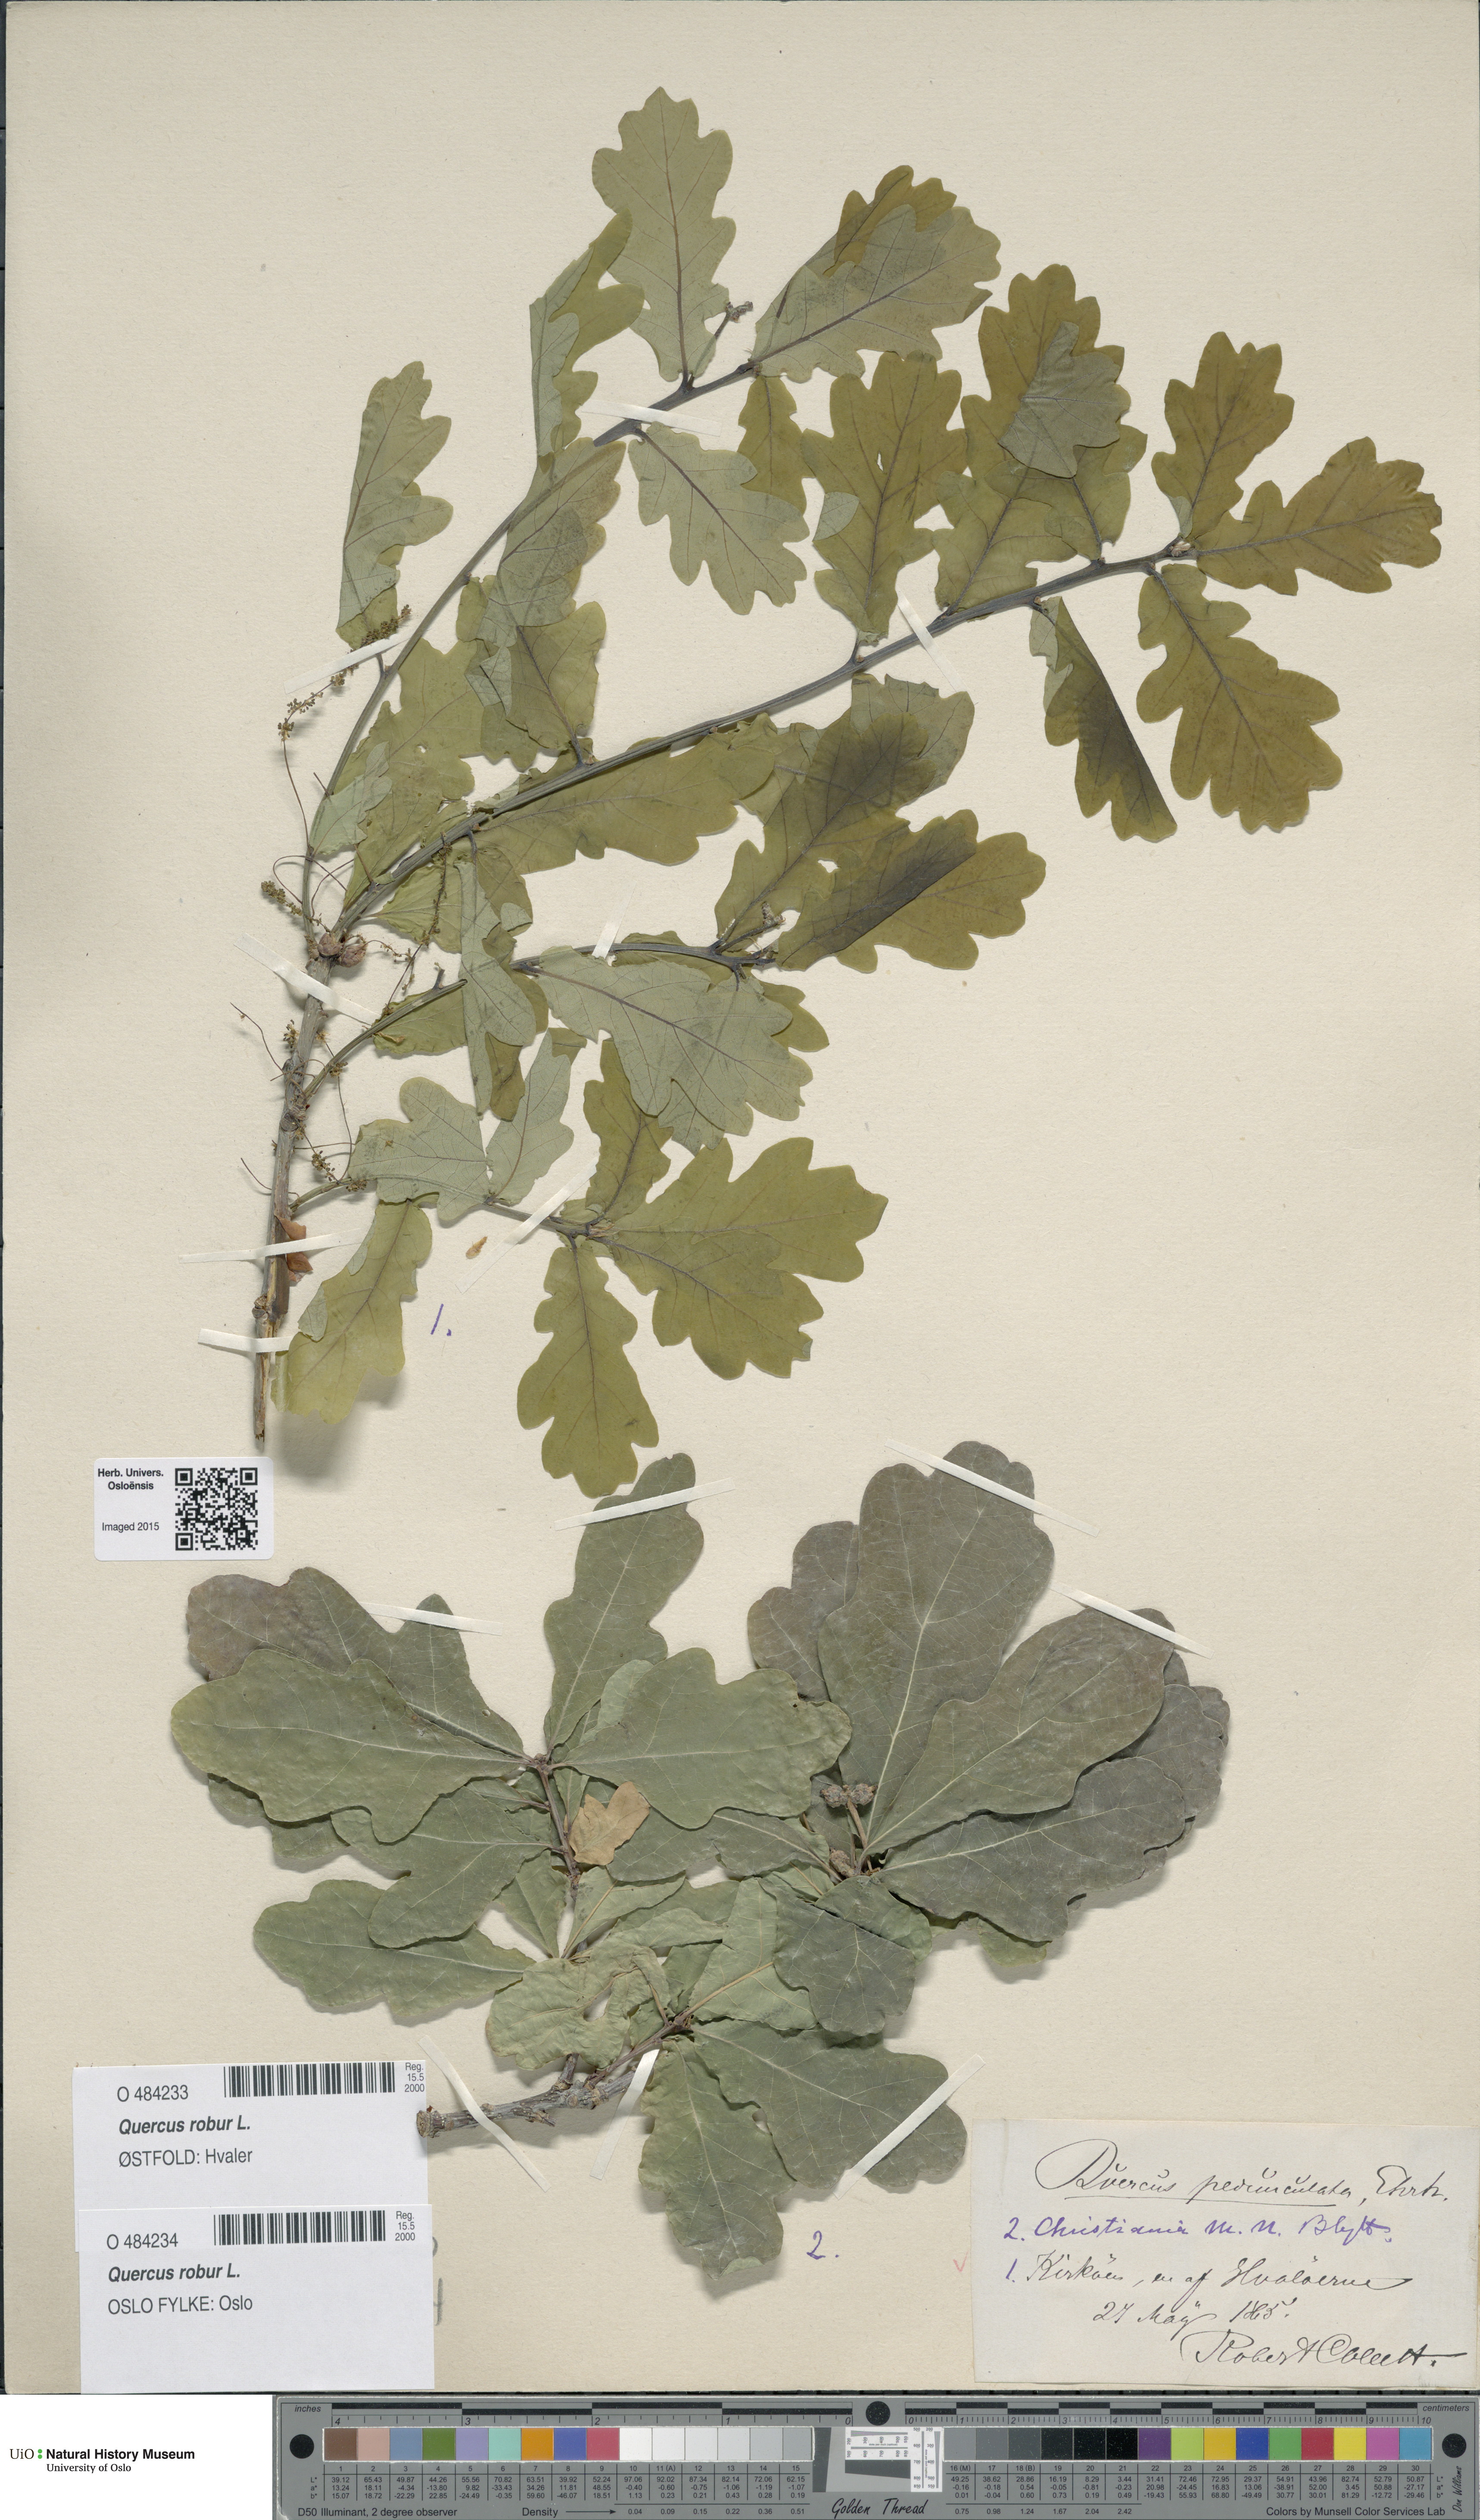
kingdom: Plantae
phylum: Tracheophyta
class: Magnoliopsida
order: Fagales
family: Fagaceae
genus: Quercus
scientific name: Quercus robur
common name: Pedunculate oak
